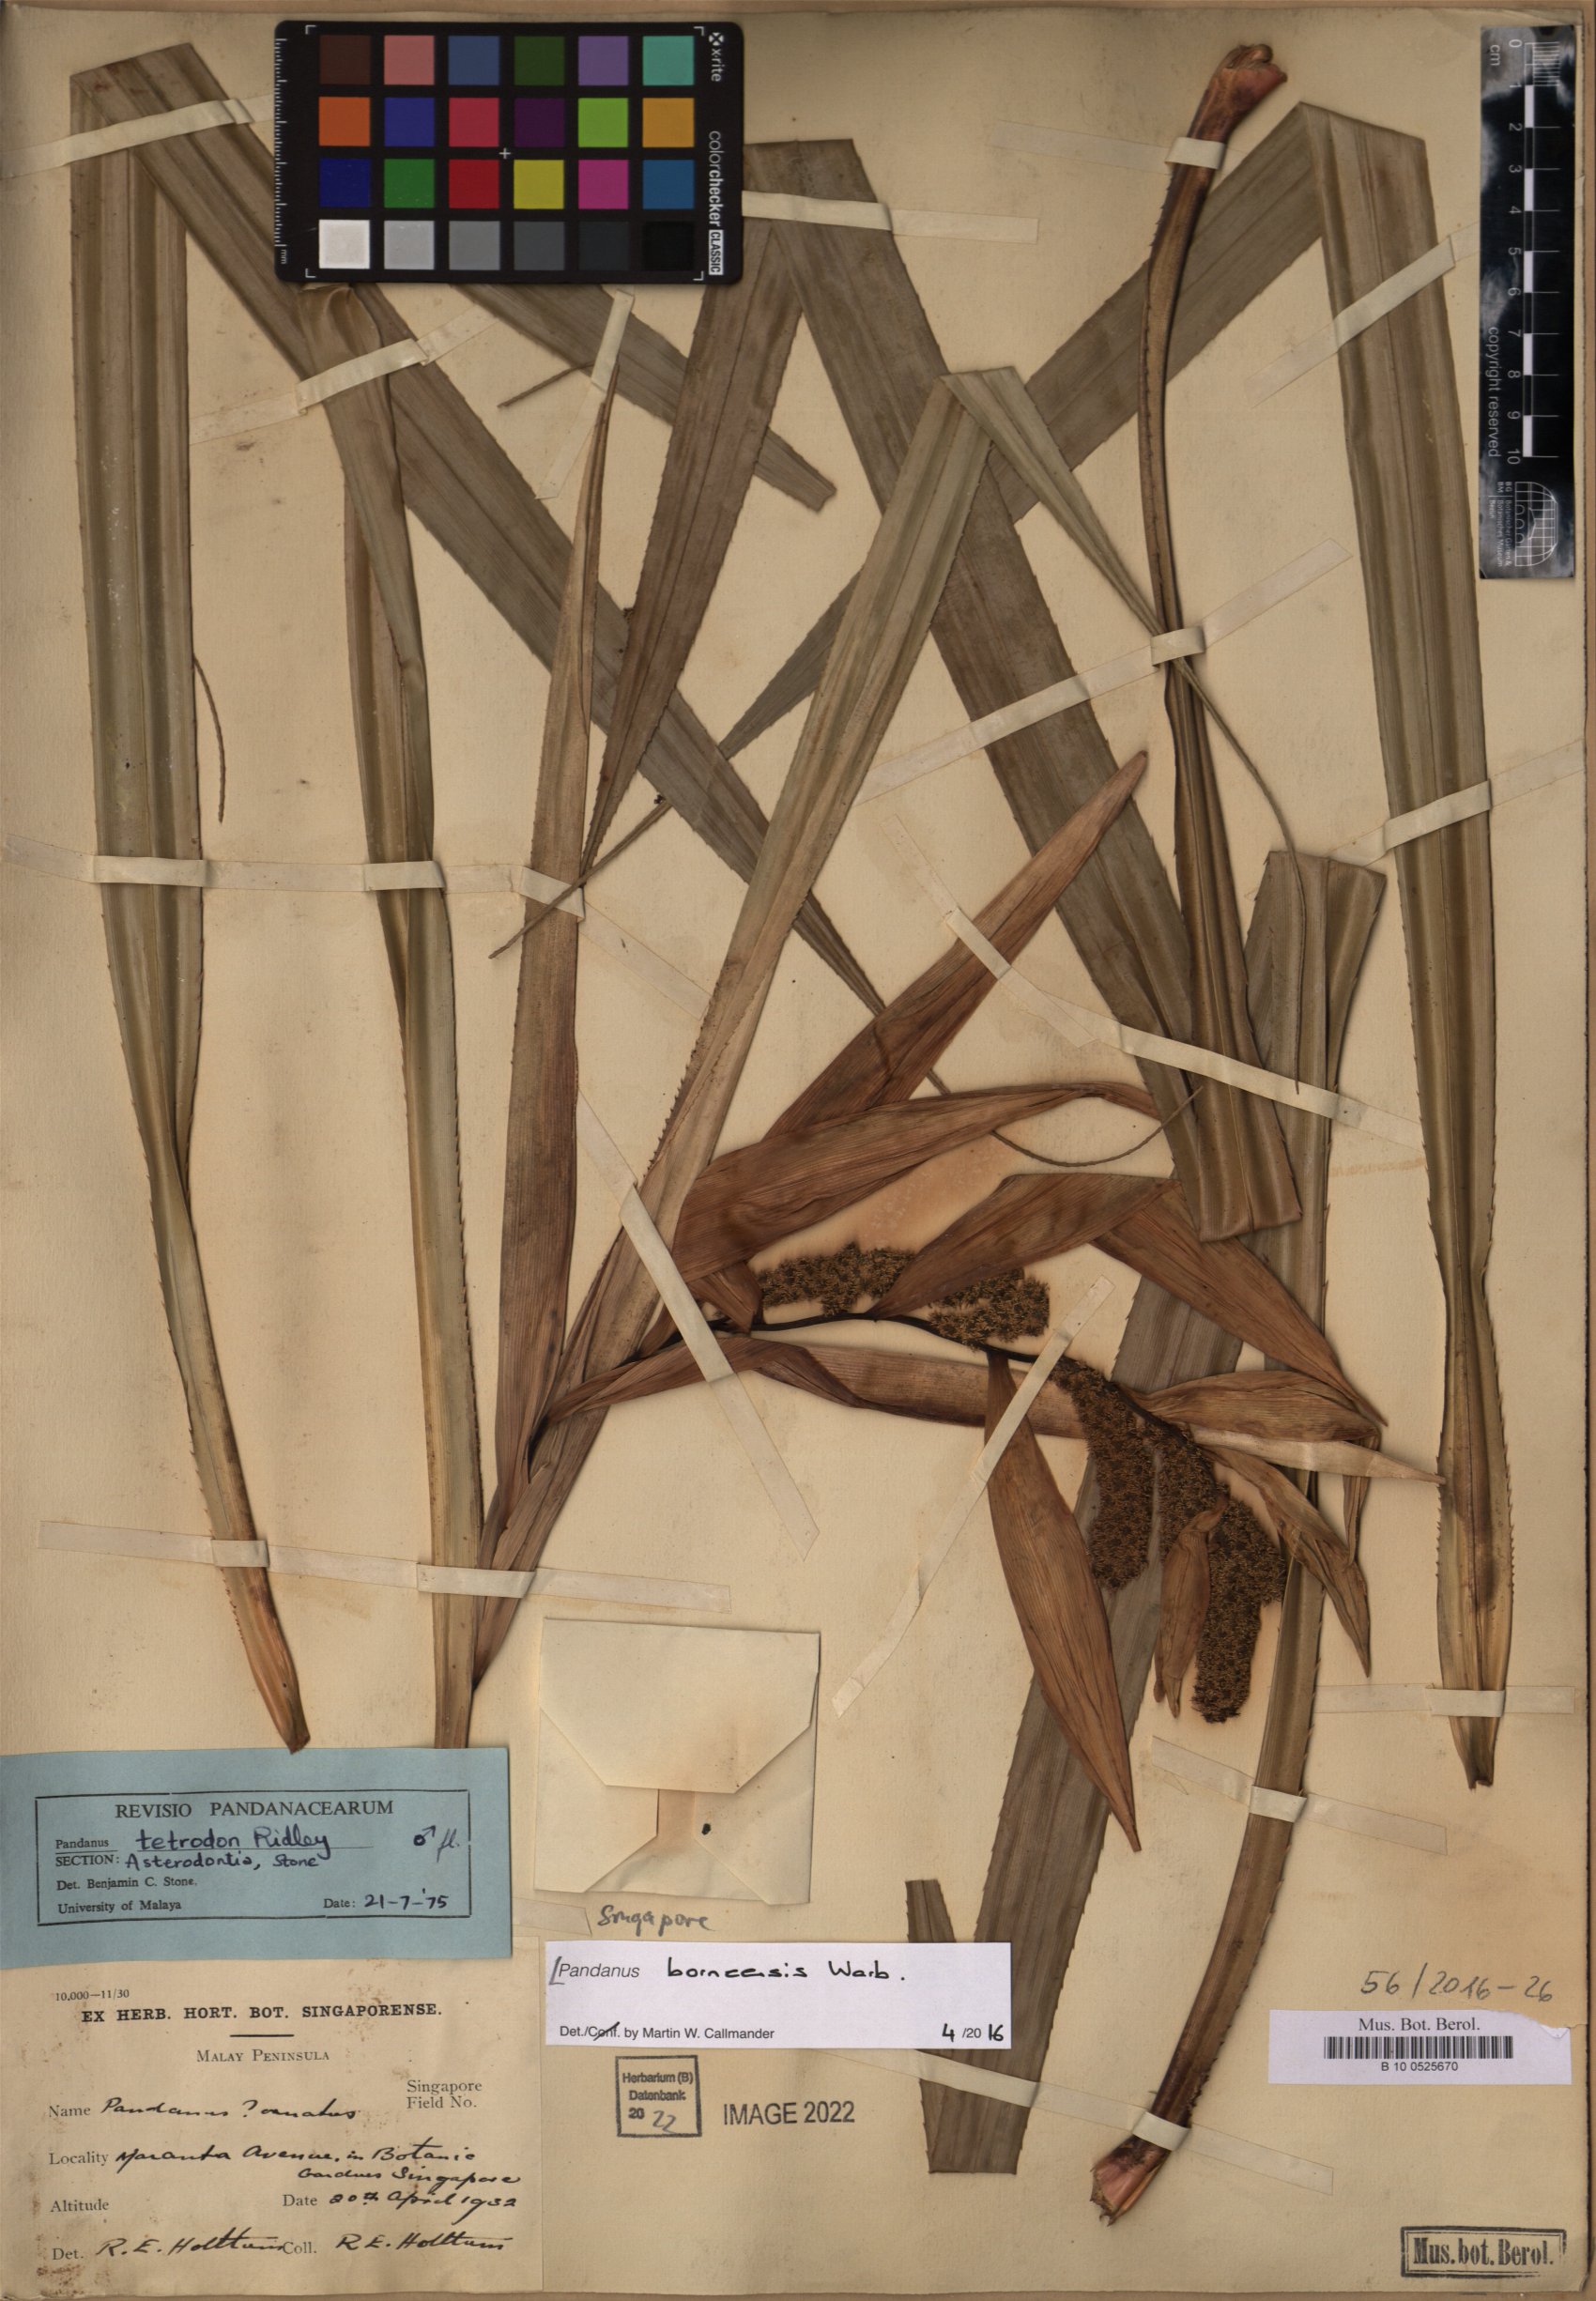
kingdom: Plantae
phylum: Tracheophyta
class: Liliopsida
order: Pandanales
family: Pandanaceae
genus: Pandanus
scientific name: Pandanus borneensis
